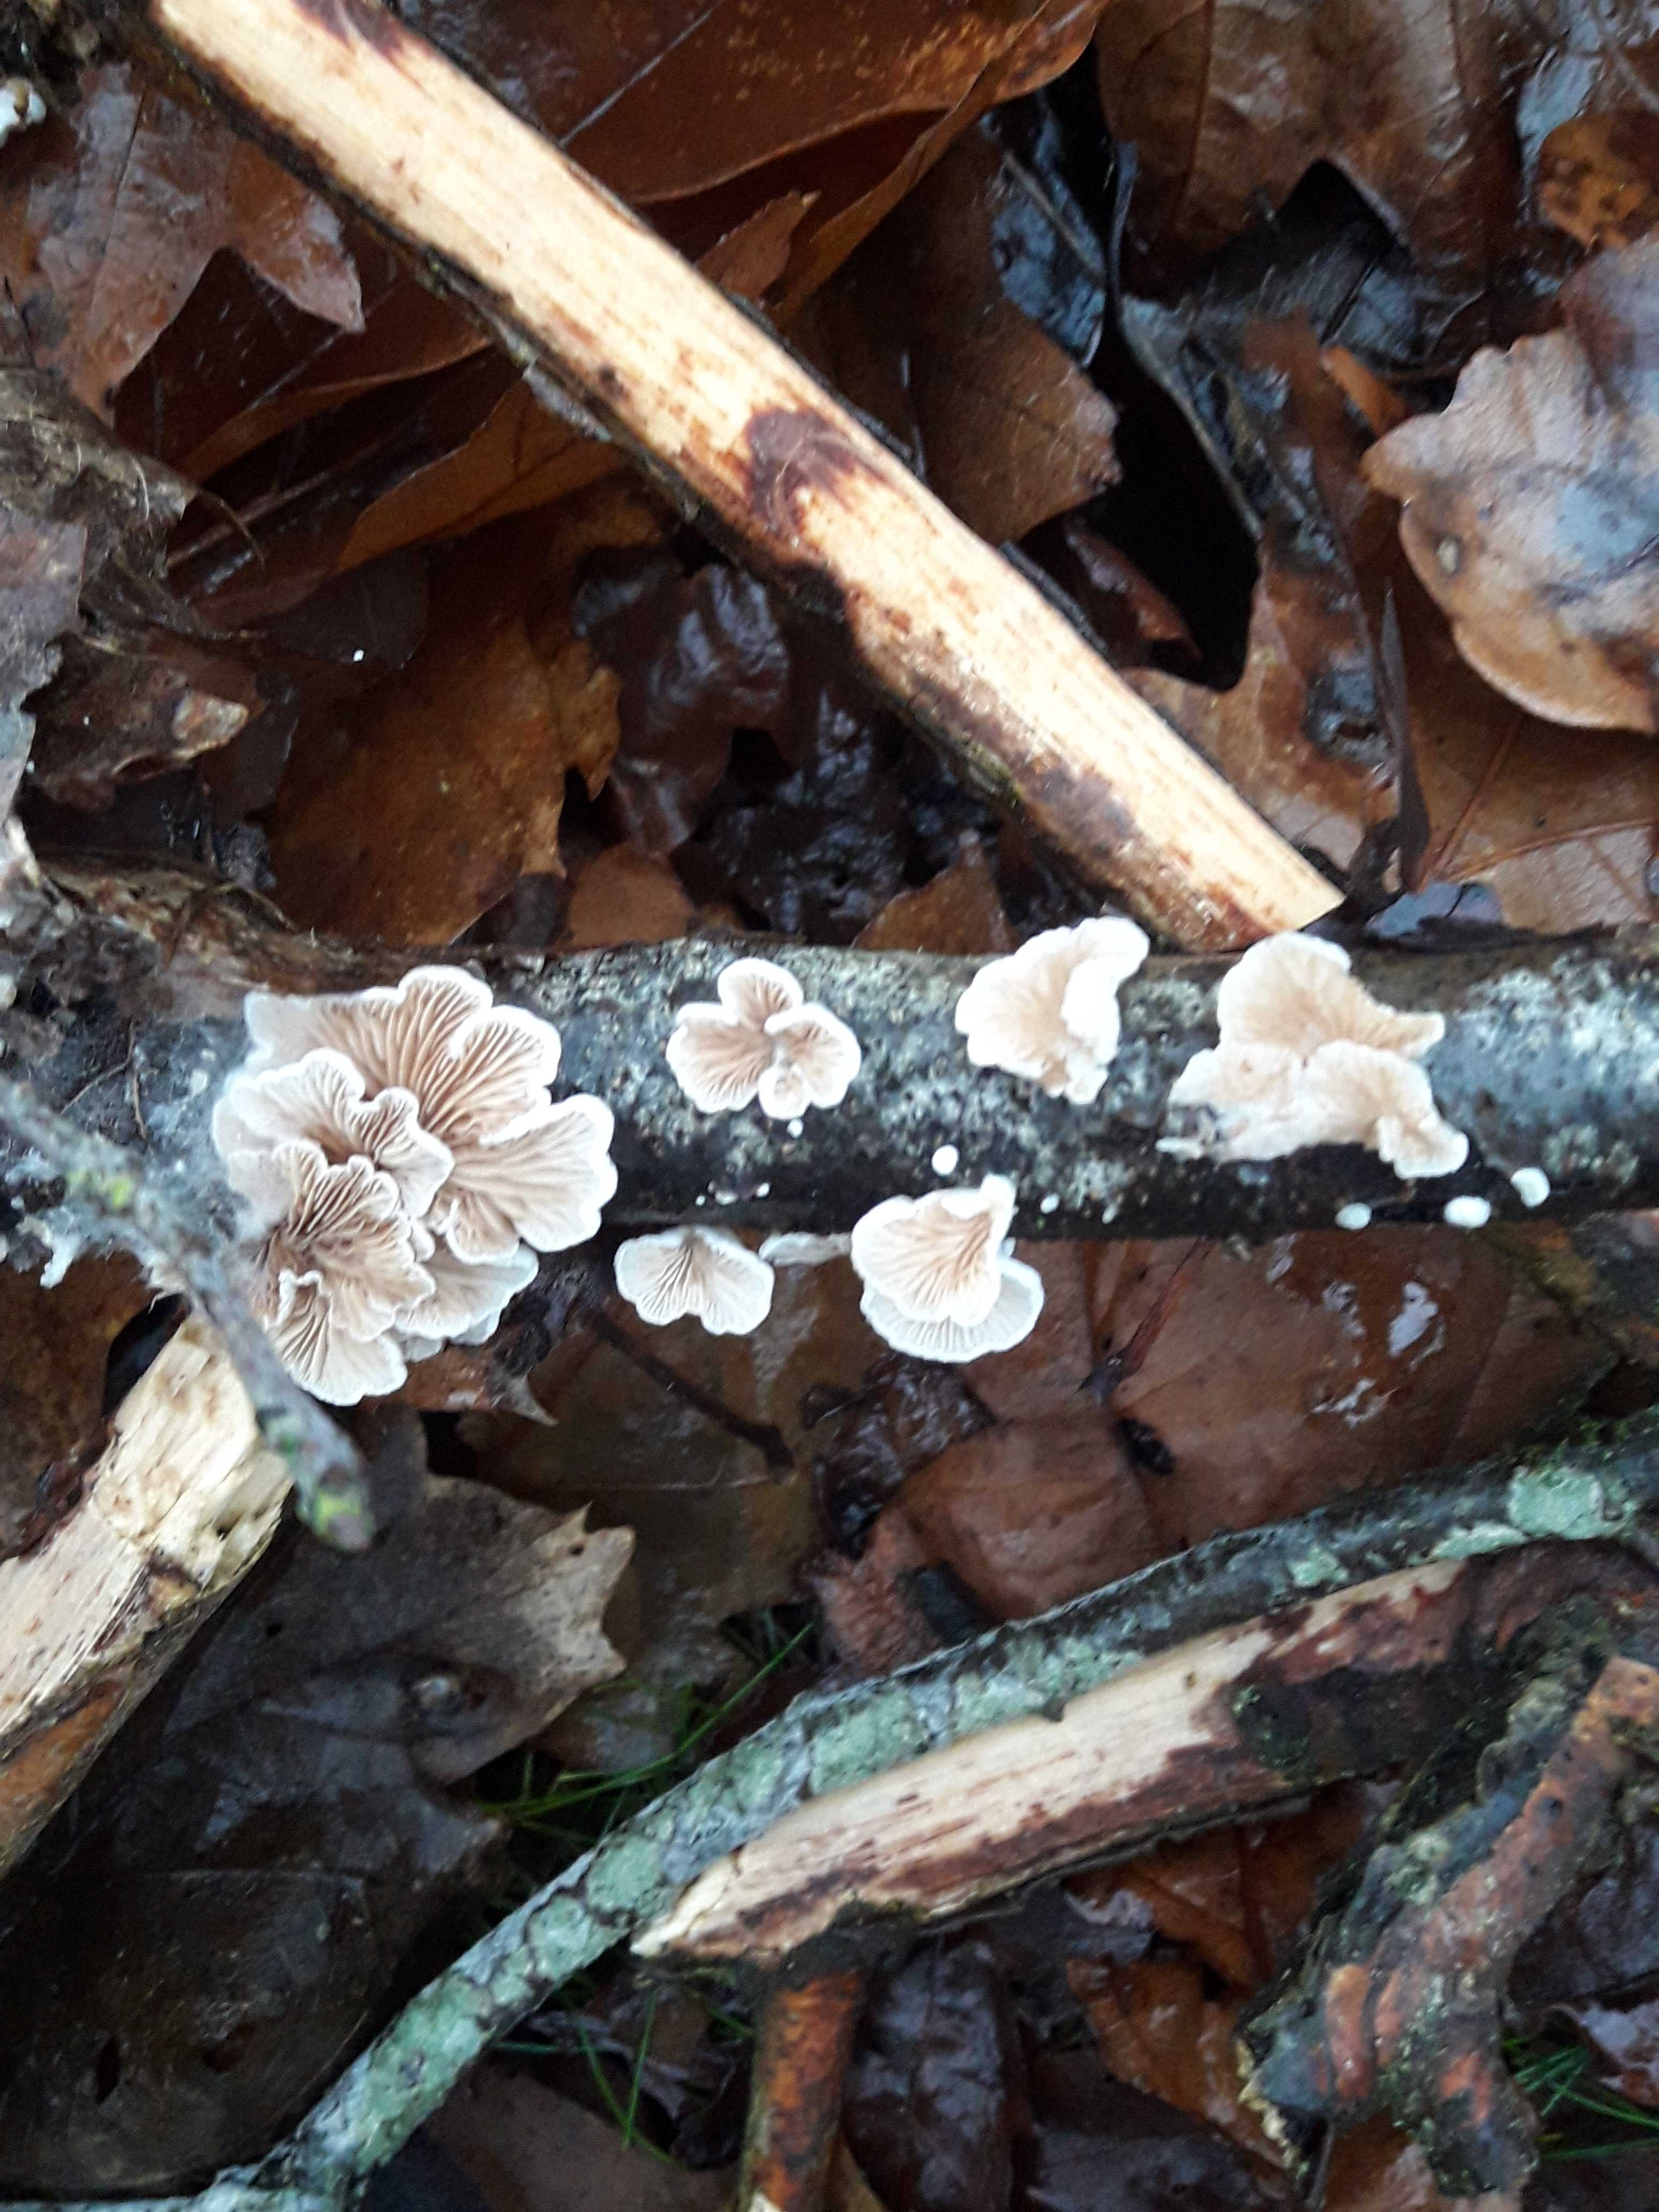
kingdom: Fungi
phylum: Basidiomycota
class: Agaricomycetes
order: Agaricales
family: Crepidotaceae
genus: Crepidotus
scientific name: Crepidotus
